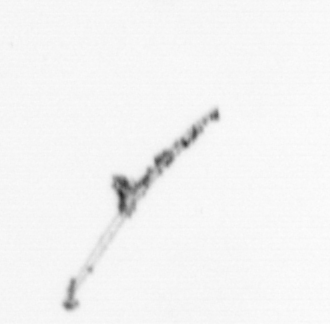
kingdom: Chromista
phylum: Ochrophyta
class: Bacillariophyceae
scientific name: Bacillariophyceae
